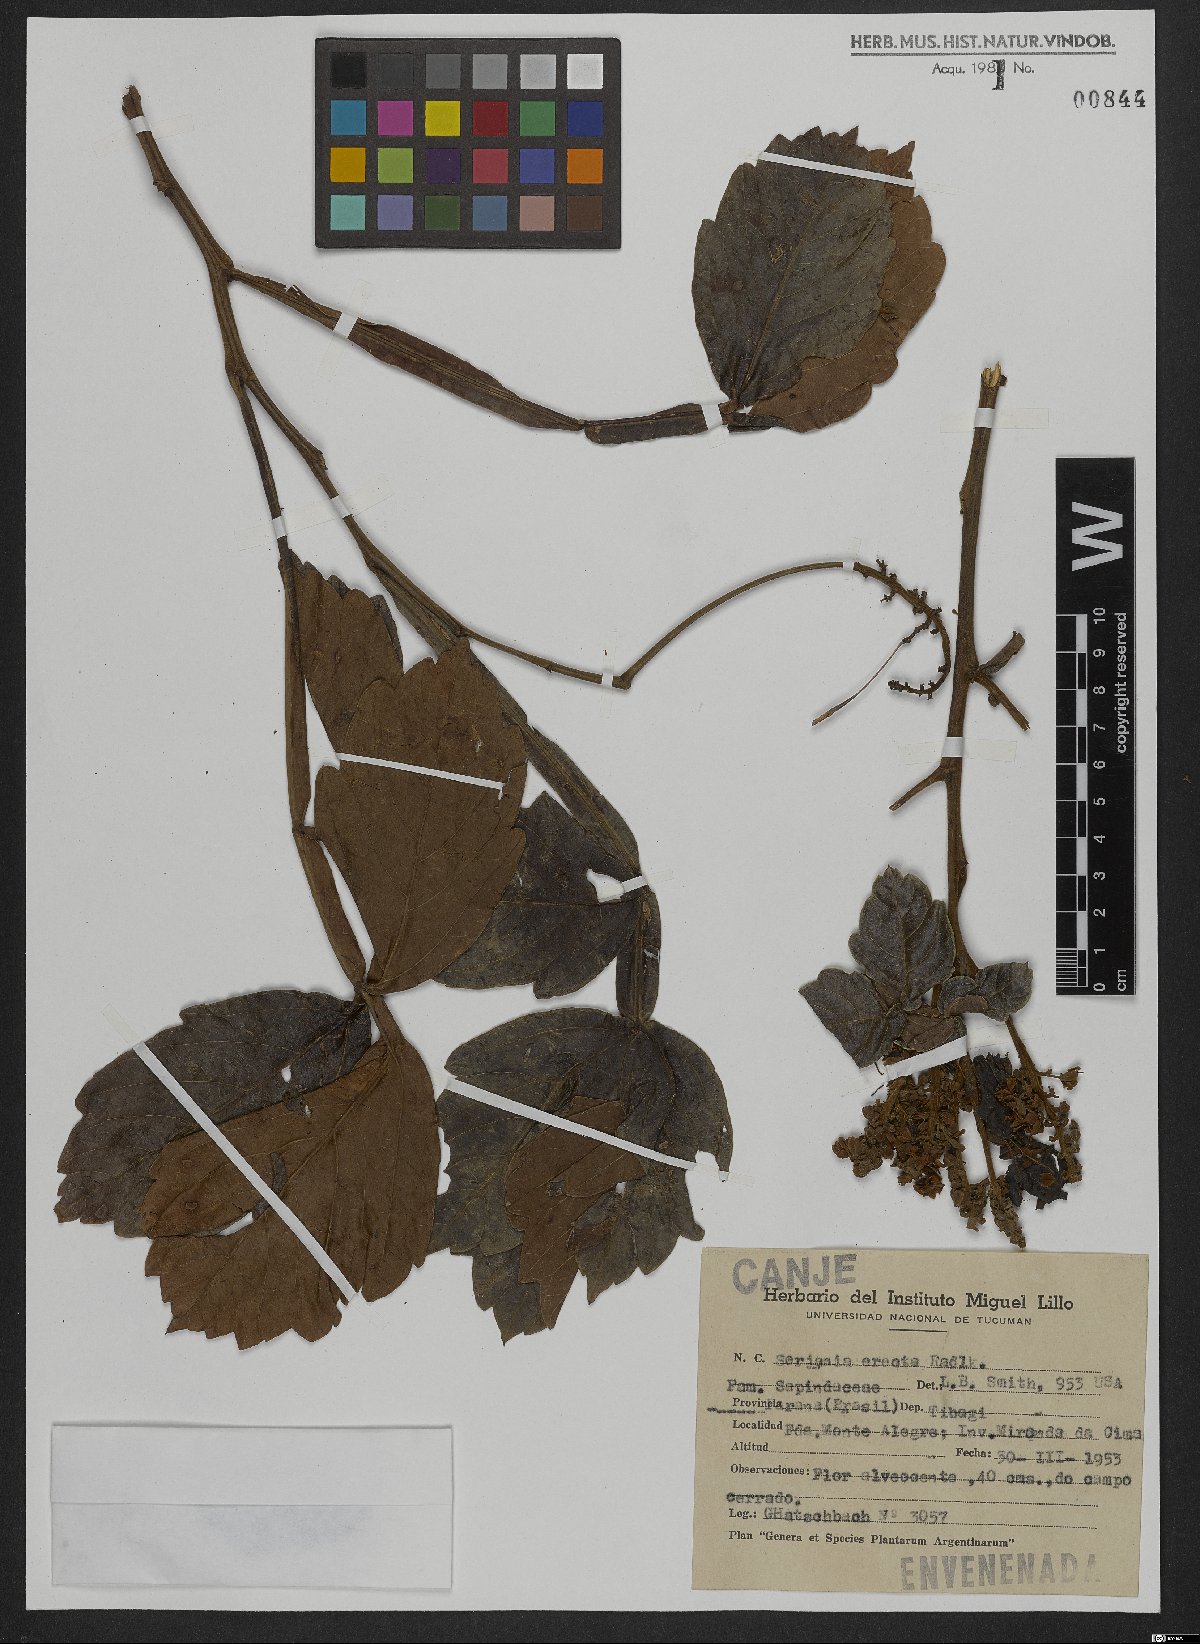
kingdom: Plantae
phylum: Tracheophyta
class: Magnoliopsida
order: Sapindales
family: Sapindaceae
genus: Serjania
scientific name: Serjania erecta
